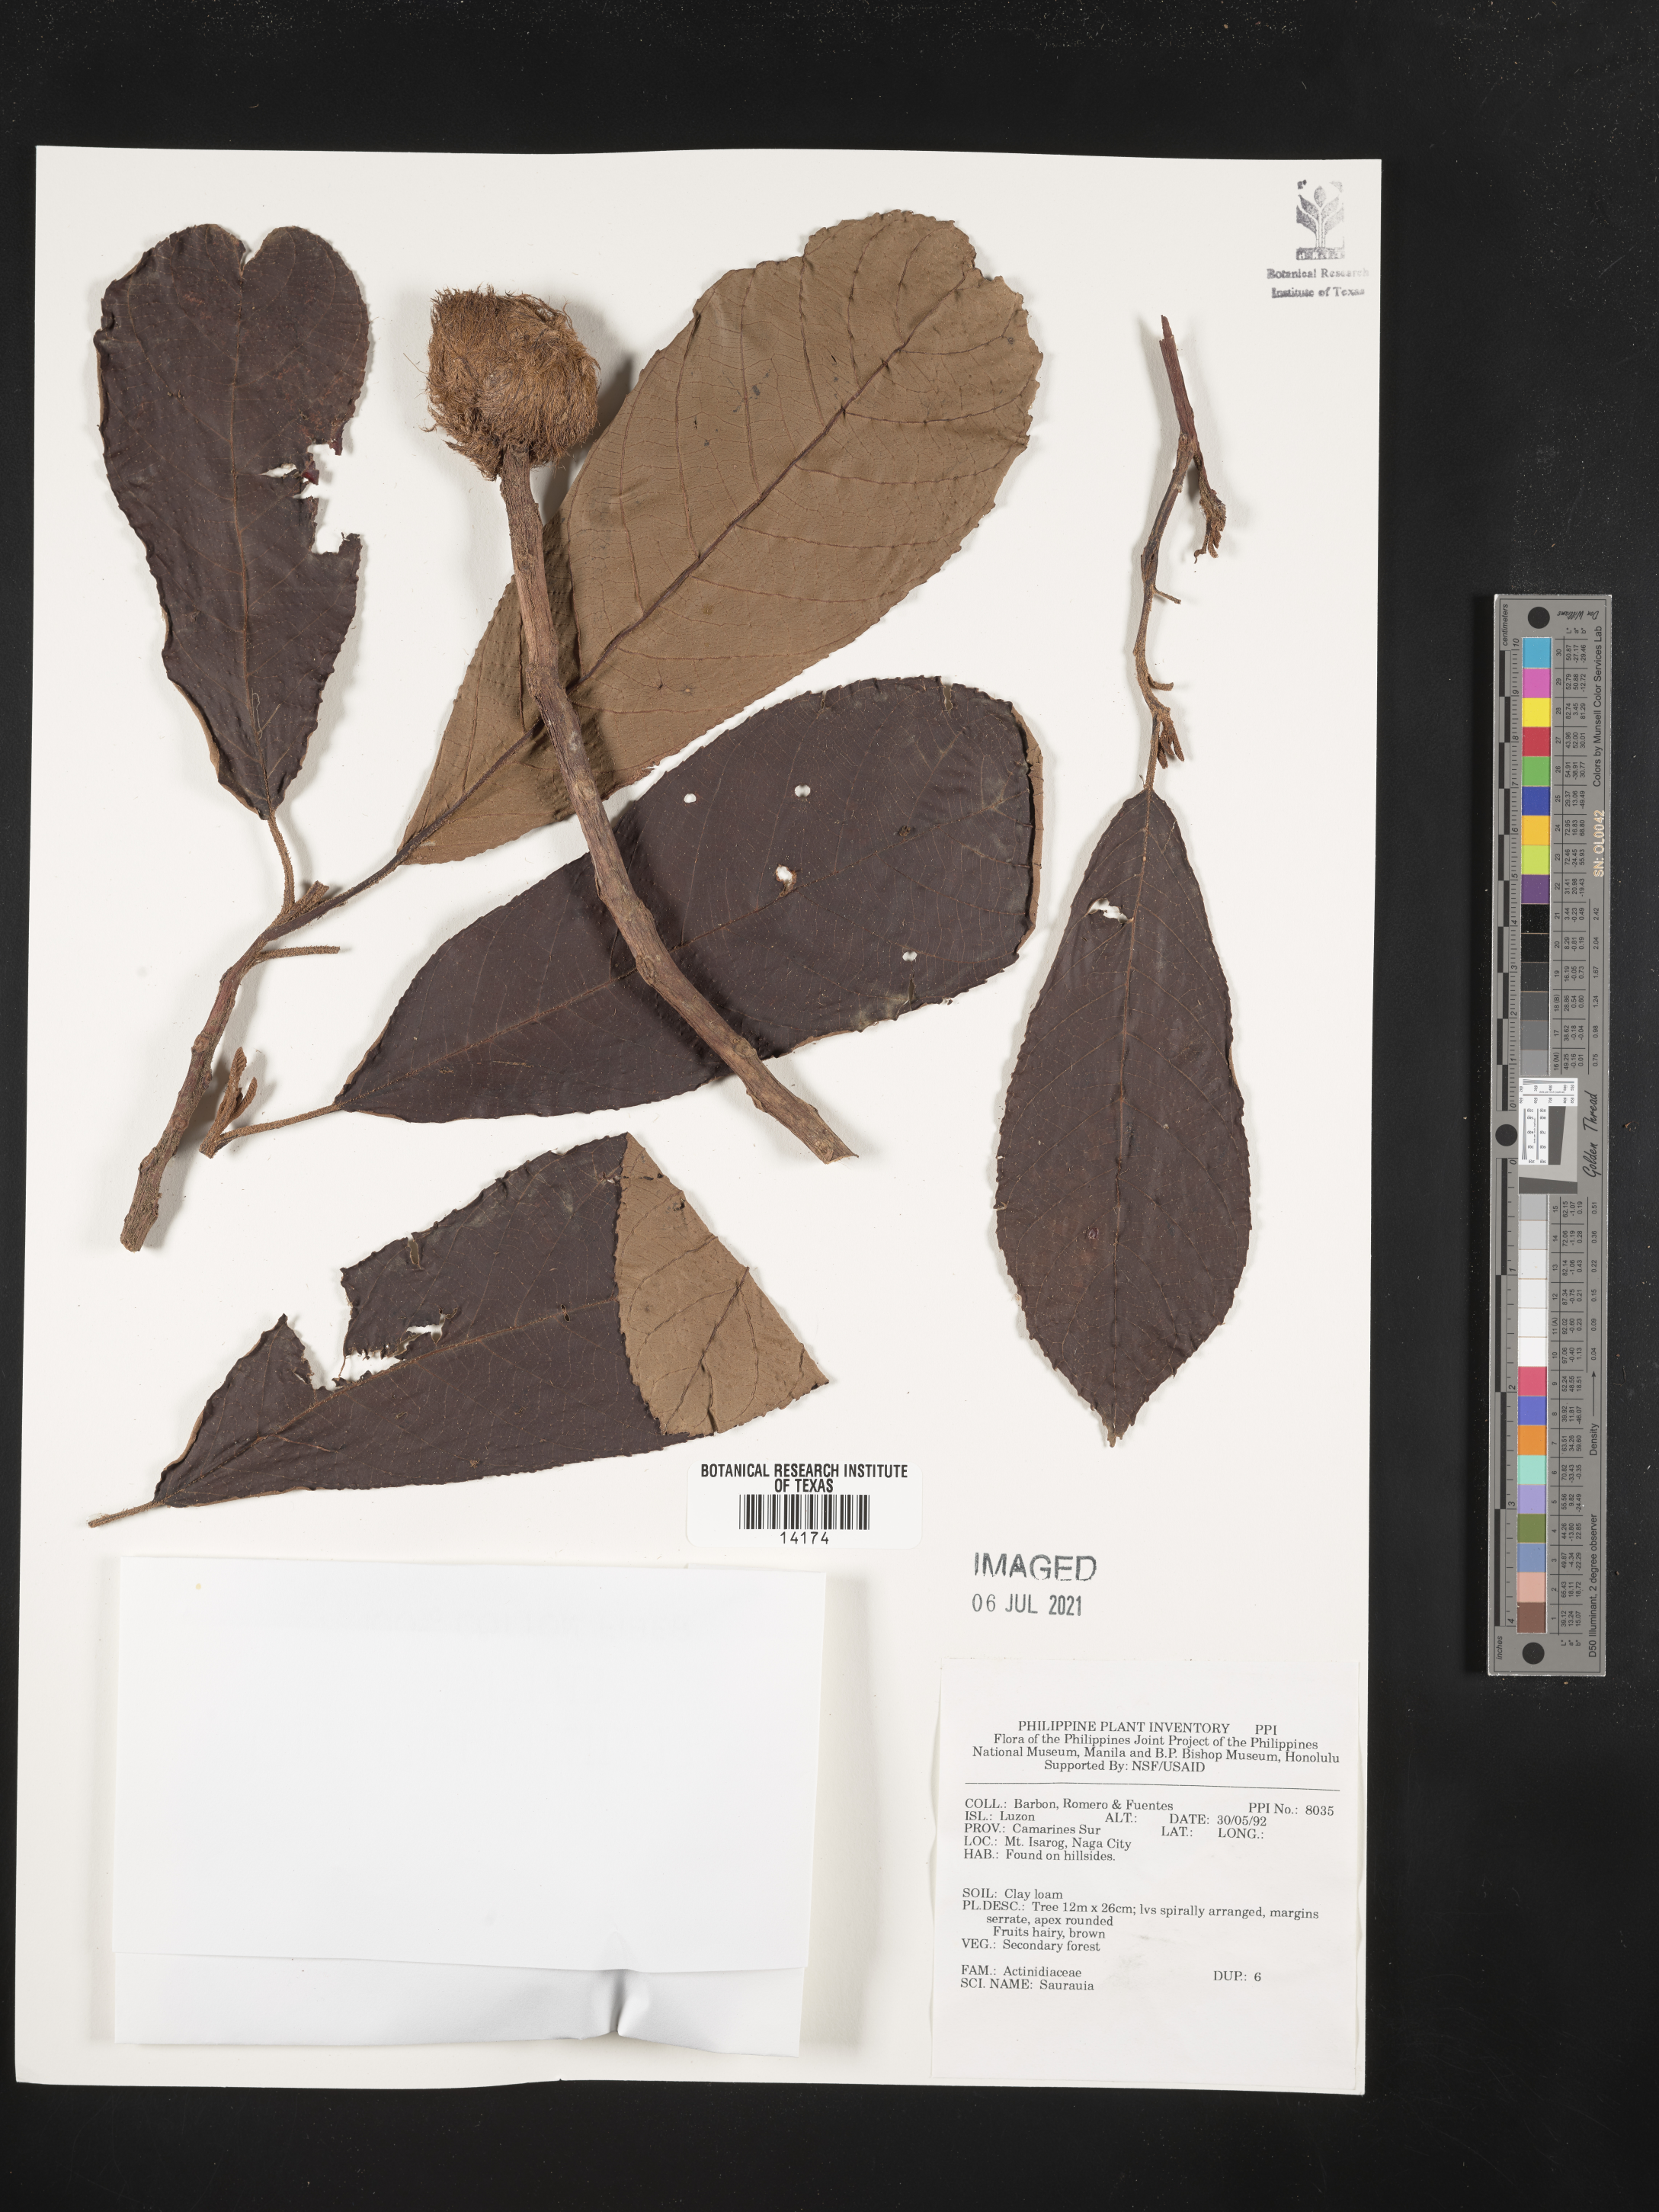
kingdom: Plantae
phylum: Tracheophyta
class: Magnoliopsida
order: Ericales
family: Actinidiaceae
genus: Saurauia
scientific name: Saurauia
